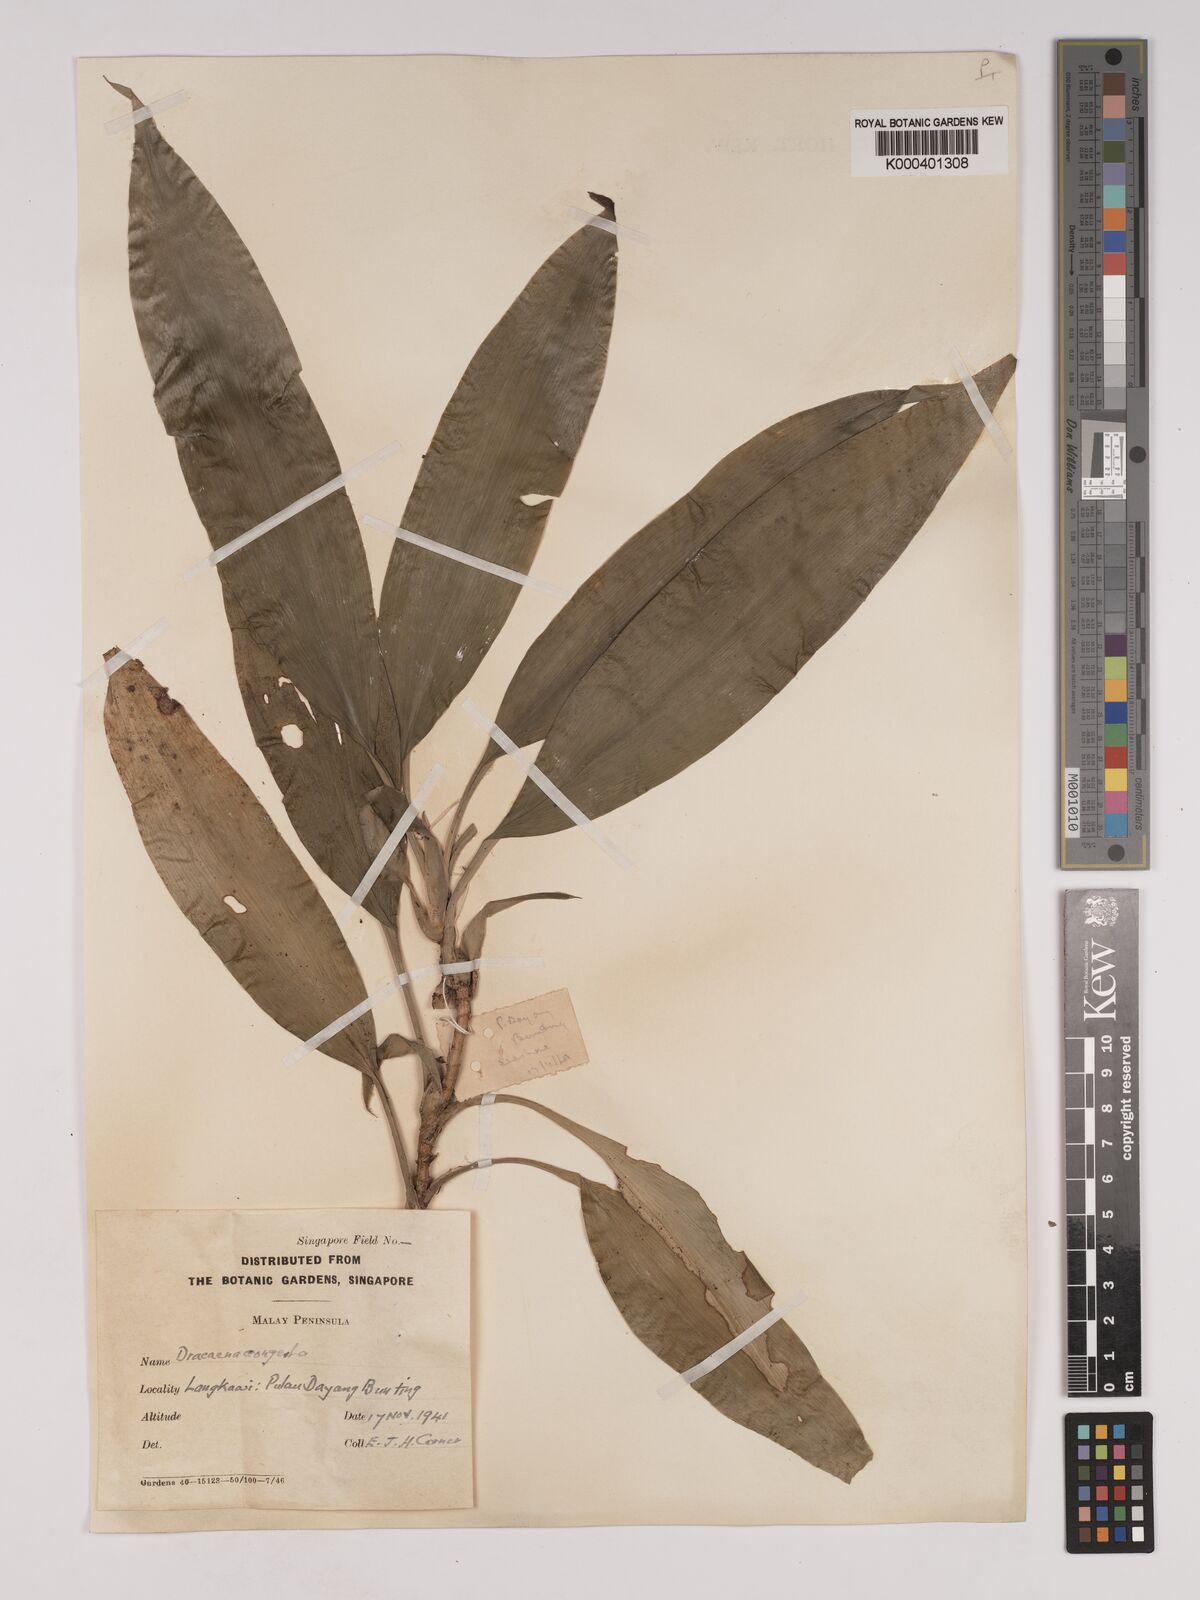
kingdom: Plantae
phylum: Tracheophyta
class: Liliopsida
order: Asparagales
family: Asparagaceae
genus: Dracaena
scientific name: Dracaena chiniana
